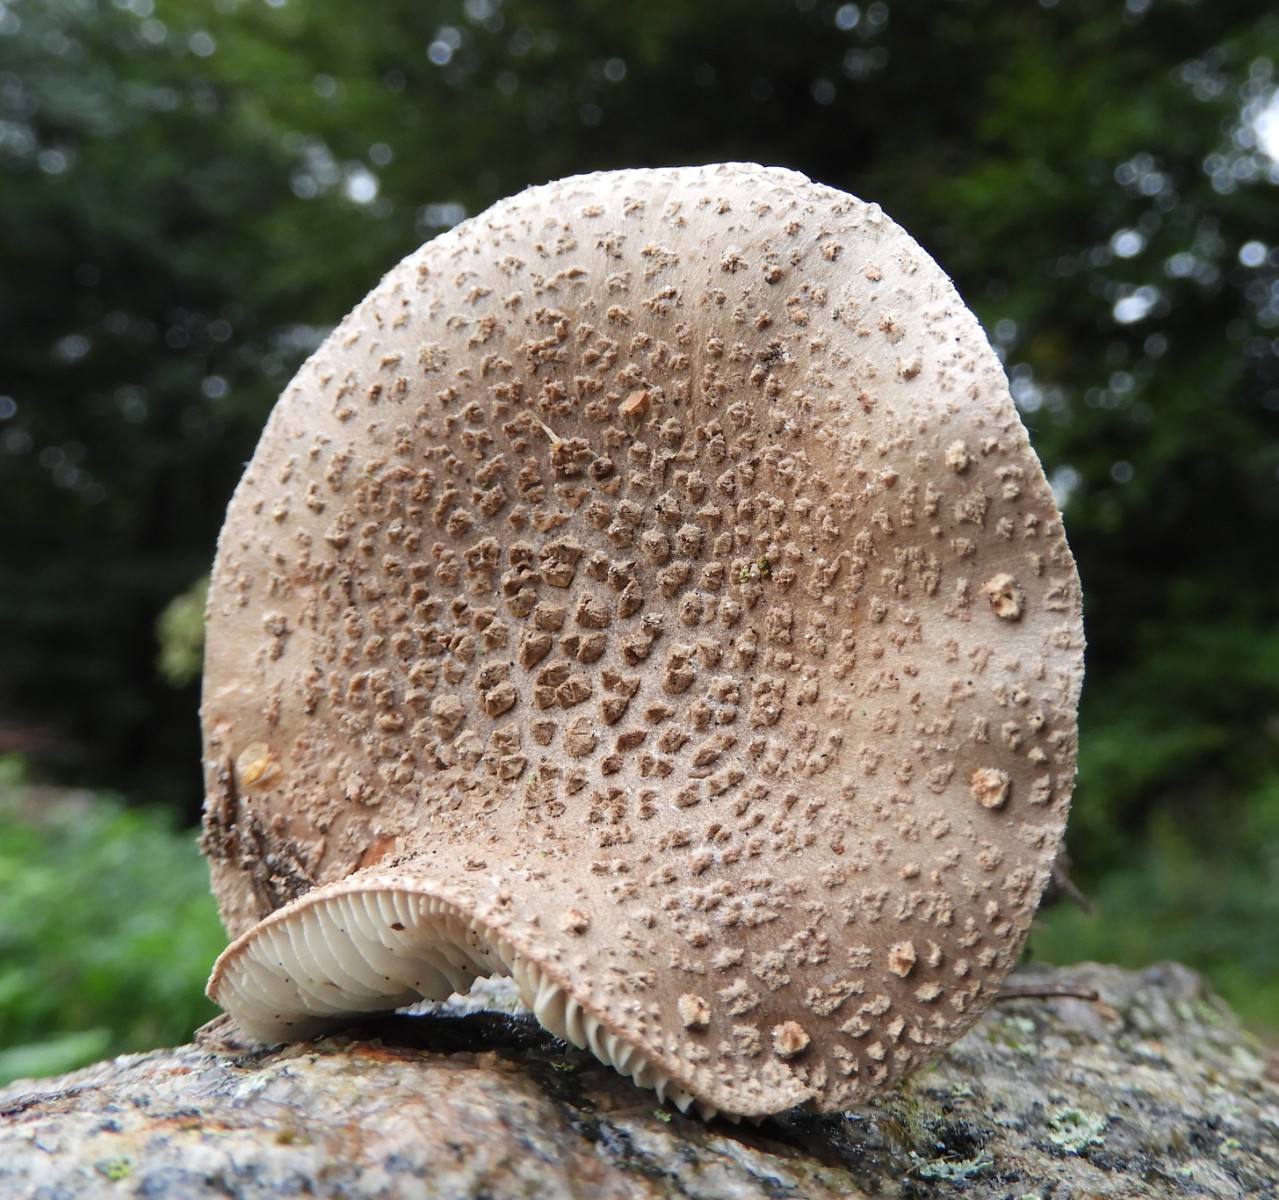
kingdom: Fungi
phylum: Basidiomycota
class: Agaricomycetes
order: Agaricales
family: Amanitaceae
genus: Amanita
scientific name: Amanita rubescens
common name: rødmende fluesvamp
